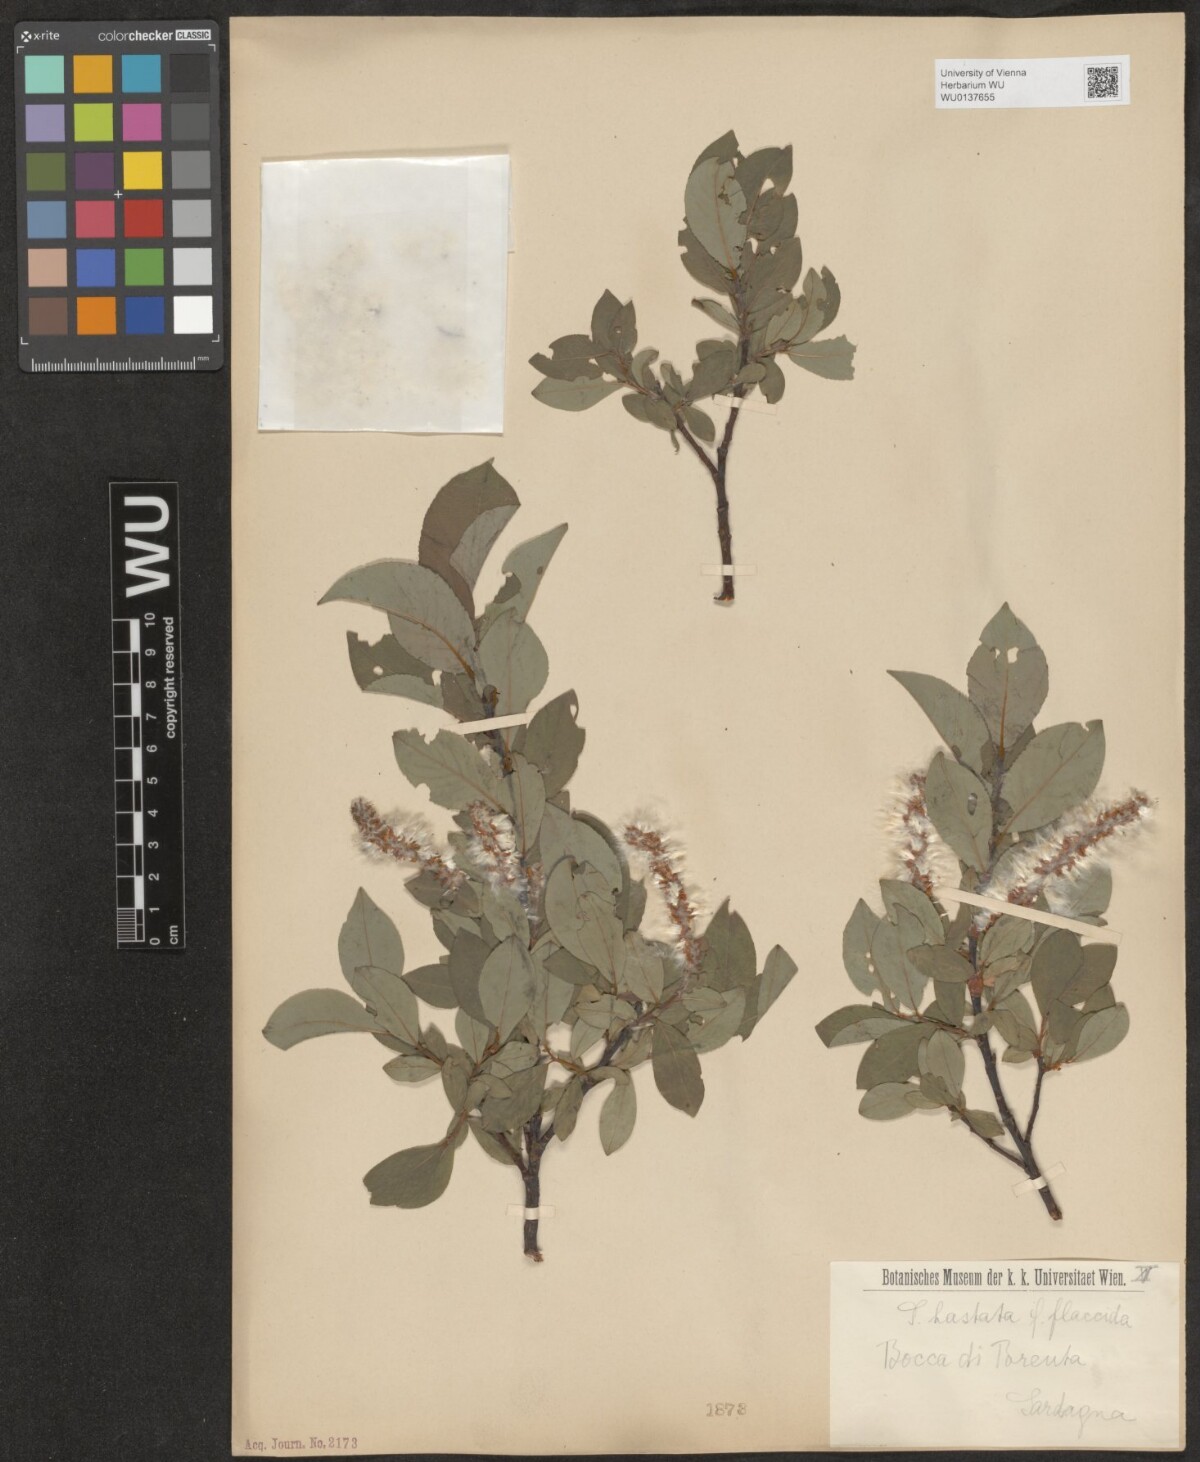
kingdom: Plantae
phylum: Tracheophyta
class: Magnoliopsida
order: Malpighiales
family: Salicaceae
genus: Salix
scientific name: Salix hastata
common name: Halberd willow
